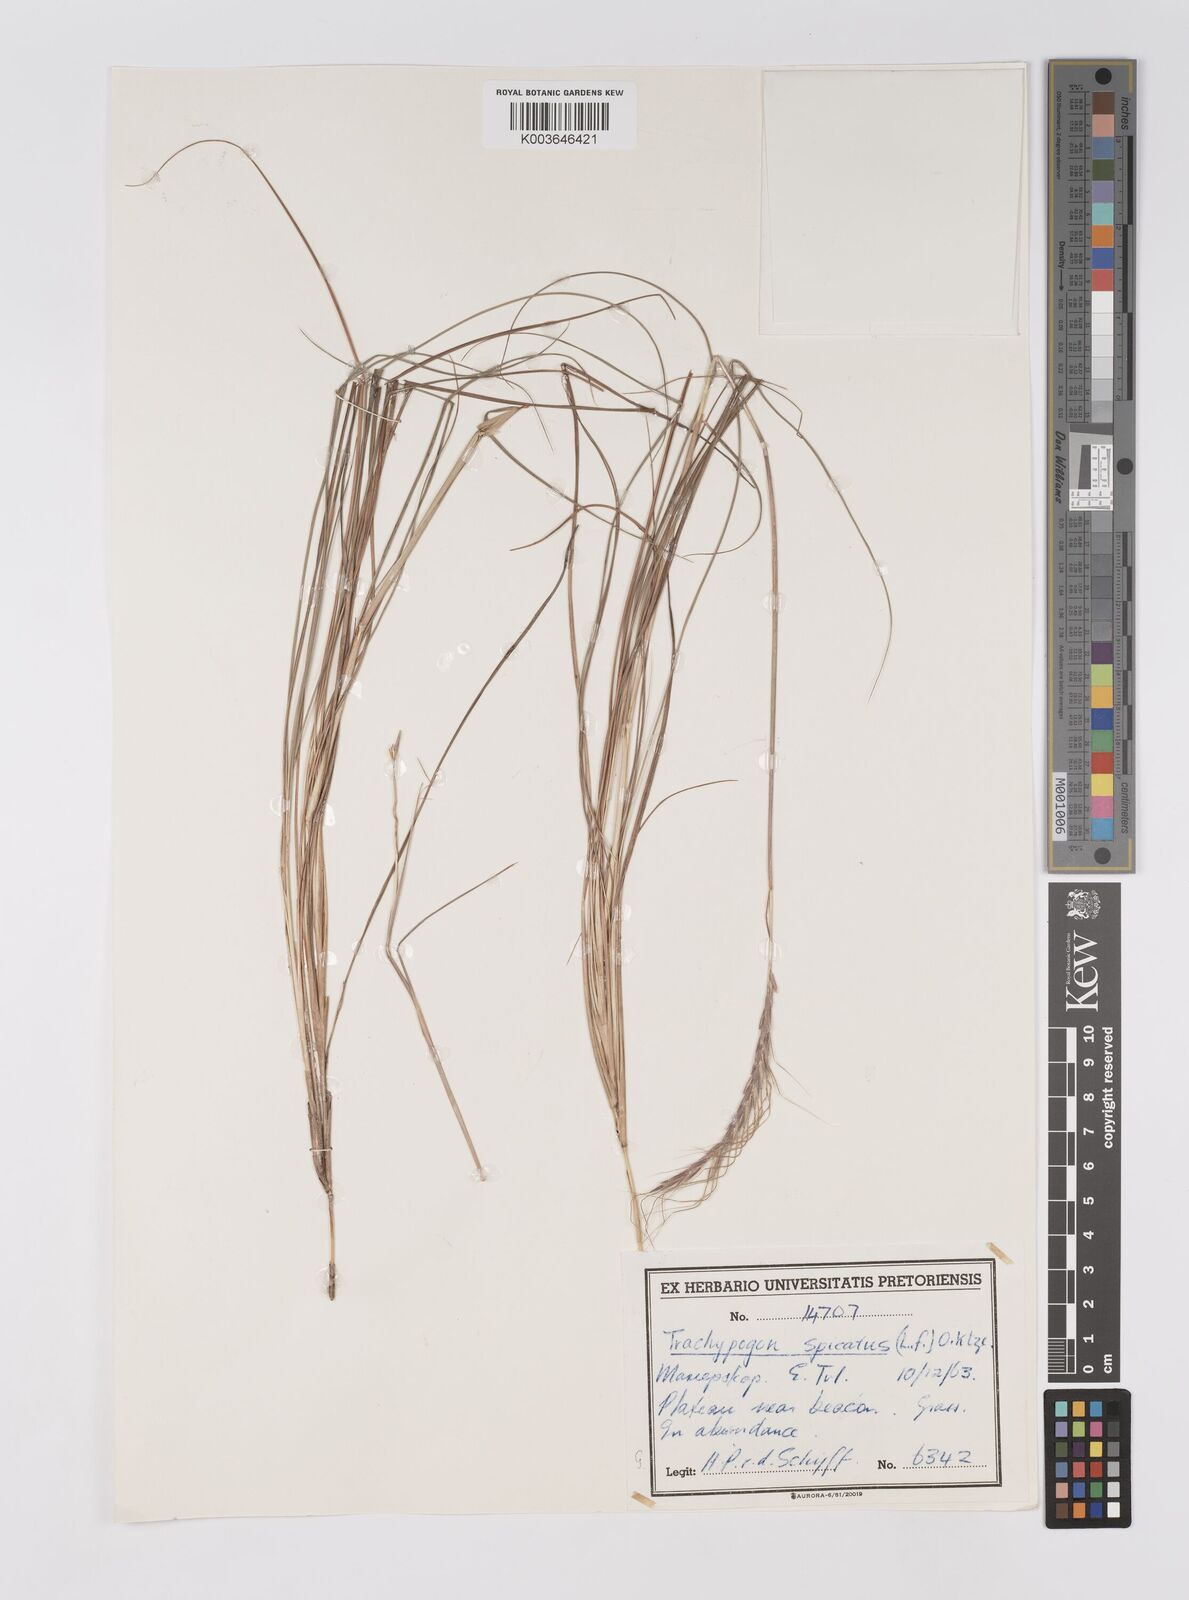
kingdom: Plantae
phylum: Tracheophyta
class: Liliopsida
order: Poales
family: Poaceae
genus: Trachypogon
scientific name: Trachypogon spicatus
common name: Crinkle-awn
